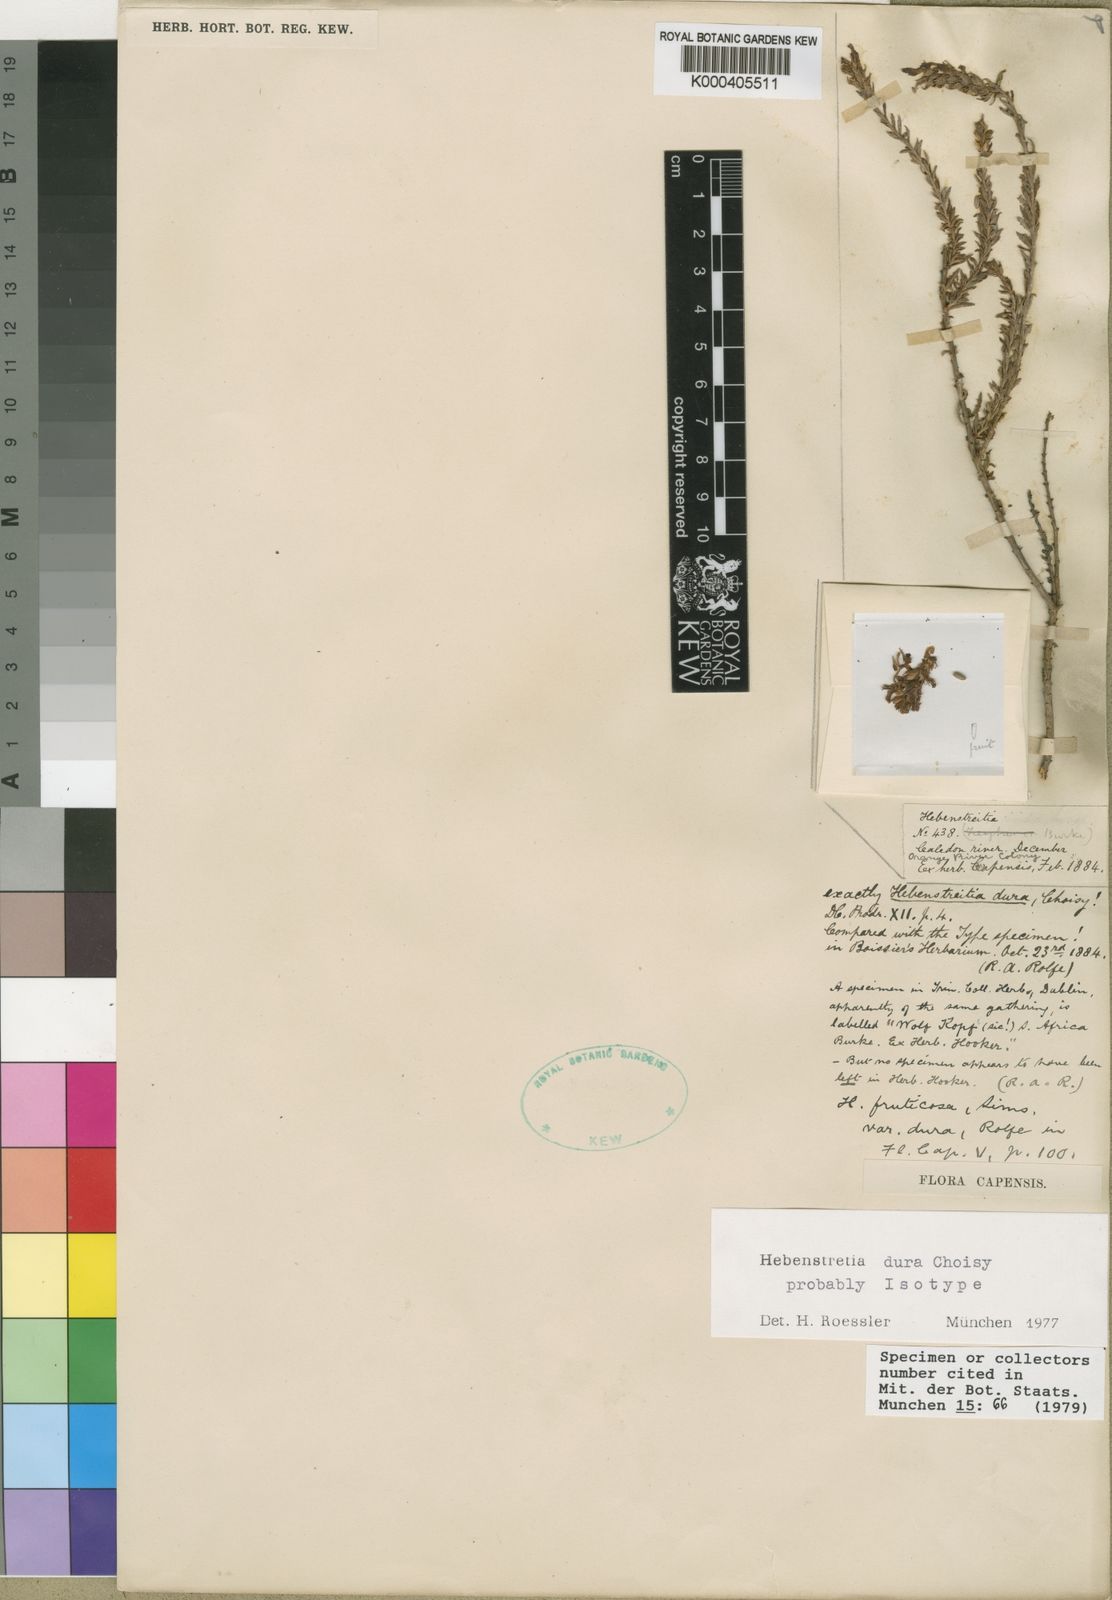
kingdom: Plantae
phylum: Tracheophyta
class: Magnoliopsida
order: Lamiales
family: Scrophulariaceae
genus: Hebenstretia
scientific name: Hebenstretia dura
